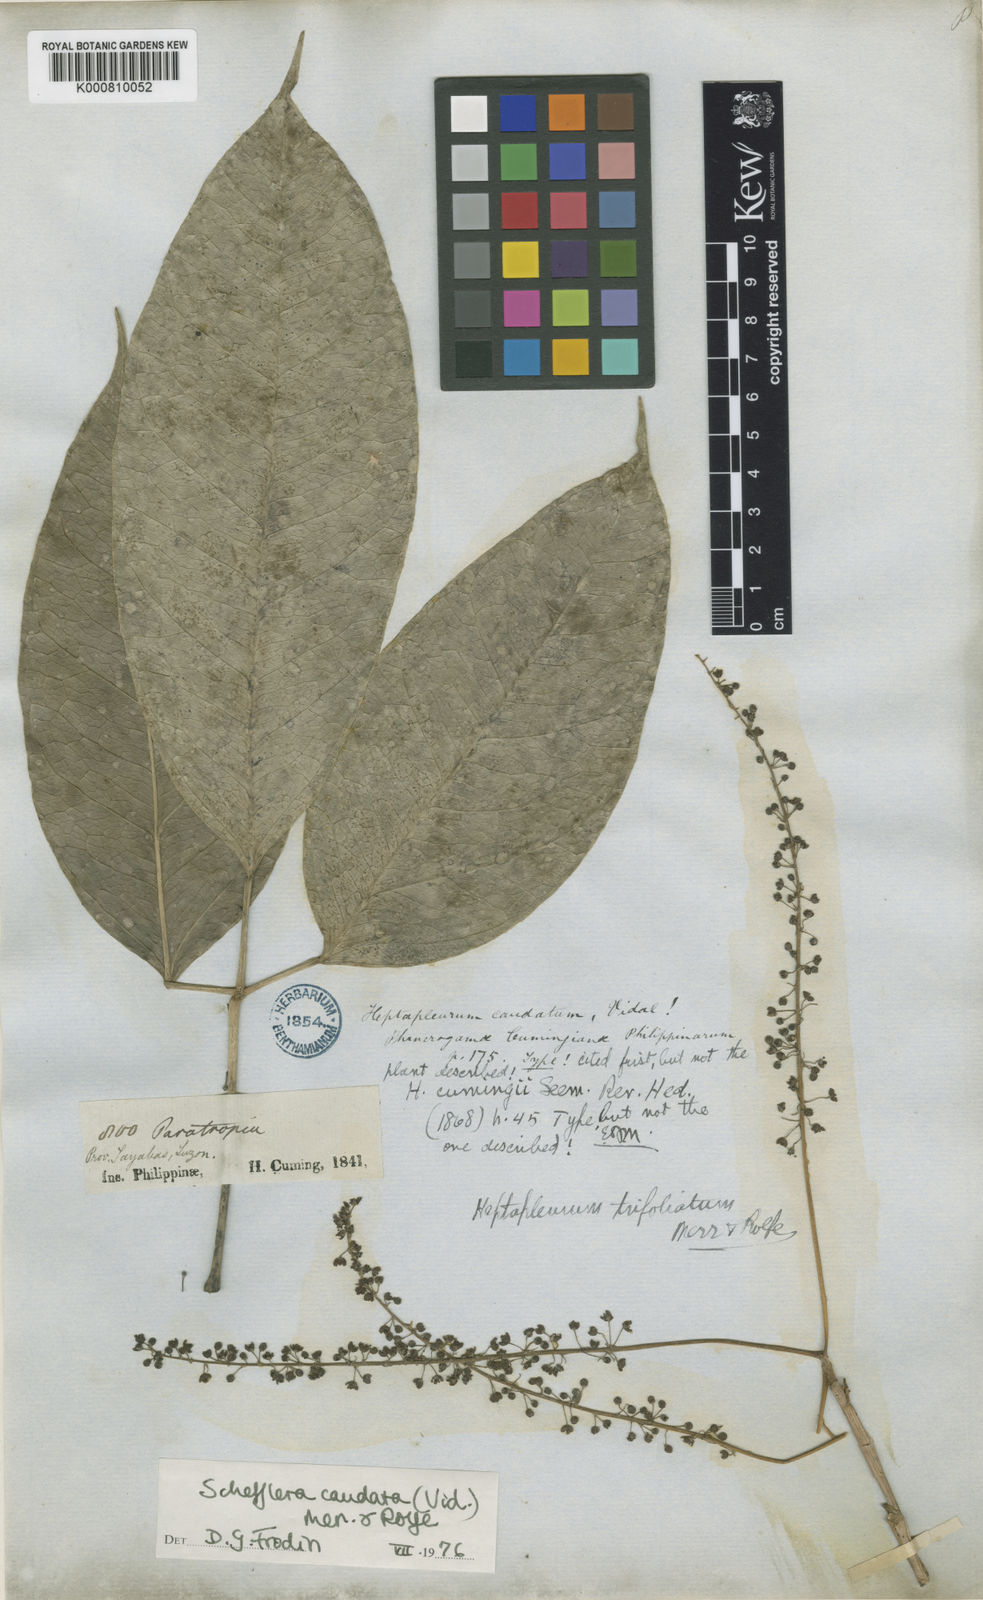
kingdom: Plantae
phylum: Tracheophyta
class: Magnoliopsida
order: Apiales
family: Araliaceae
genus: Heptapleurum
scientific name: Heptapleurum caudatum
